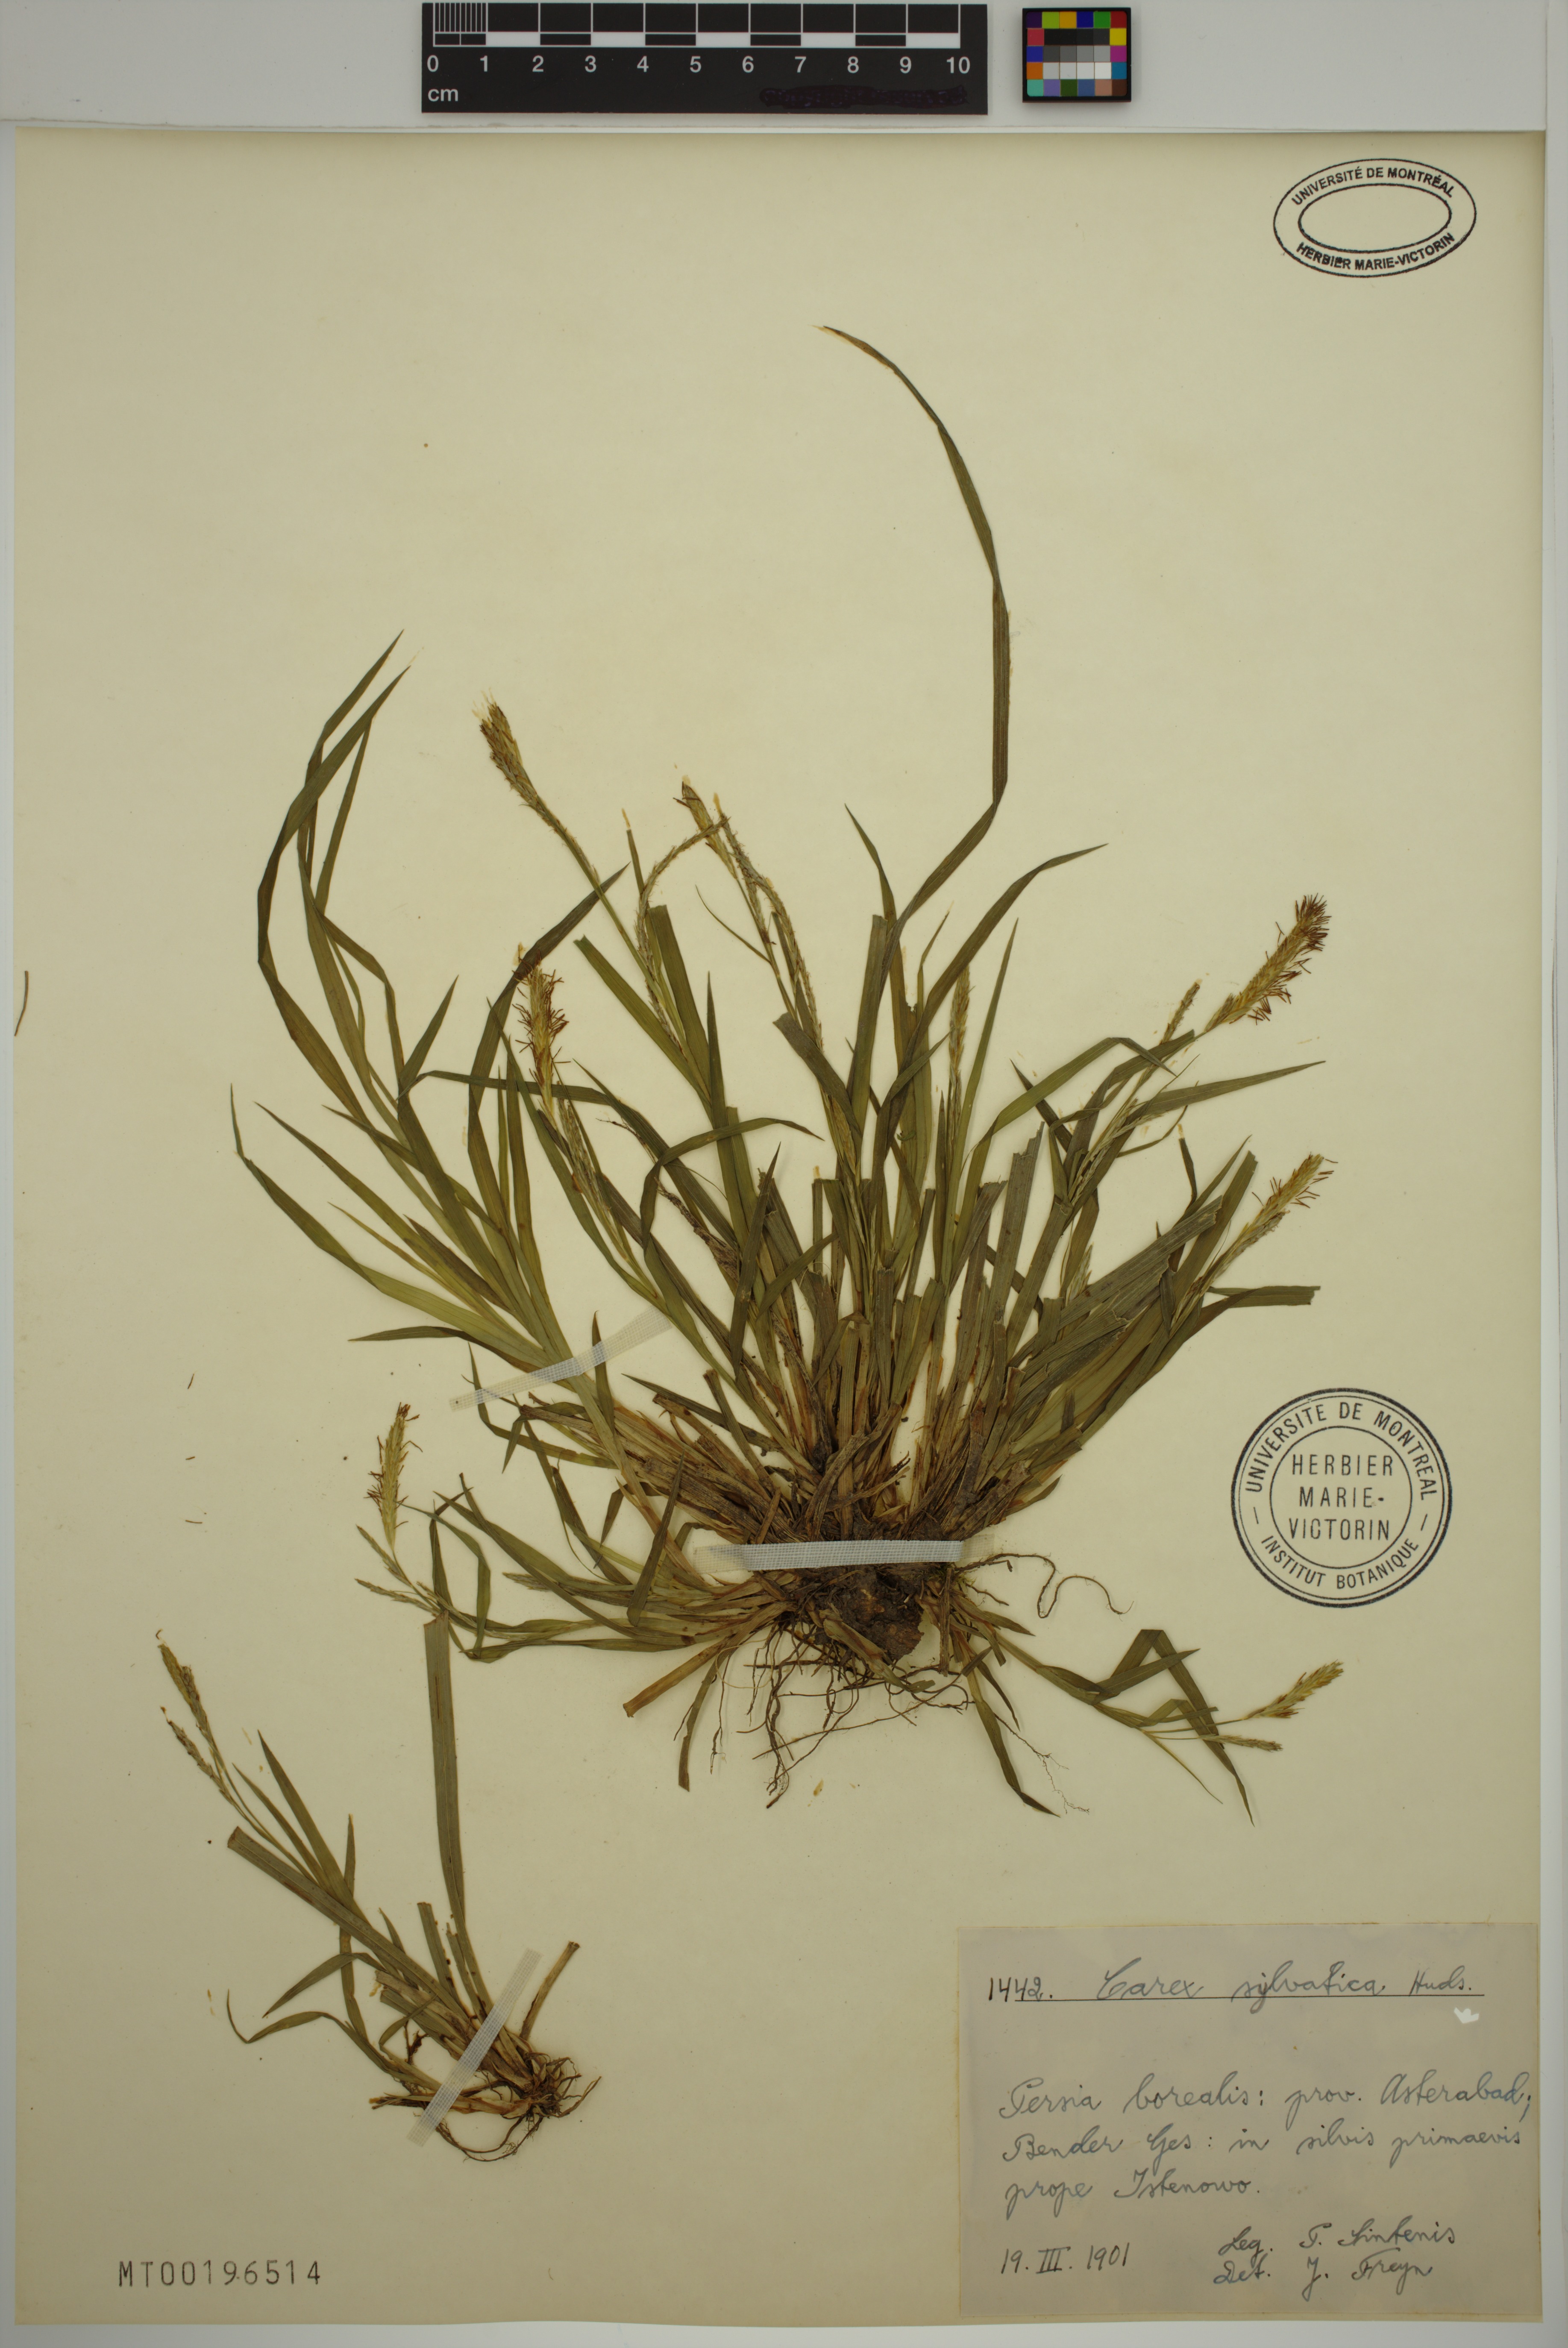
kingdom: Plantae
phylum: Tracheophyta
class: Liliopsida
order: Poales
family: Cyperaceae
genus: Carex
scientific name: Carex sylvatica
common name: Wood-sedge
